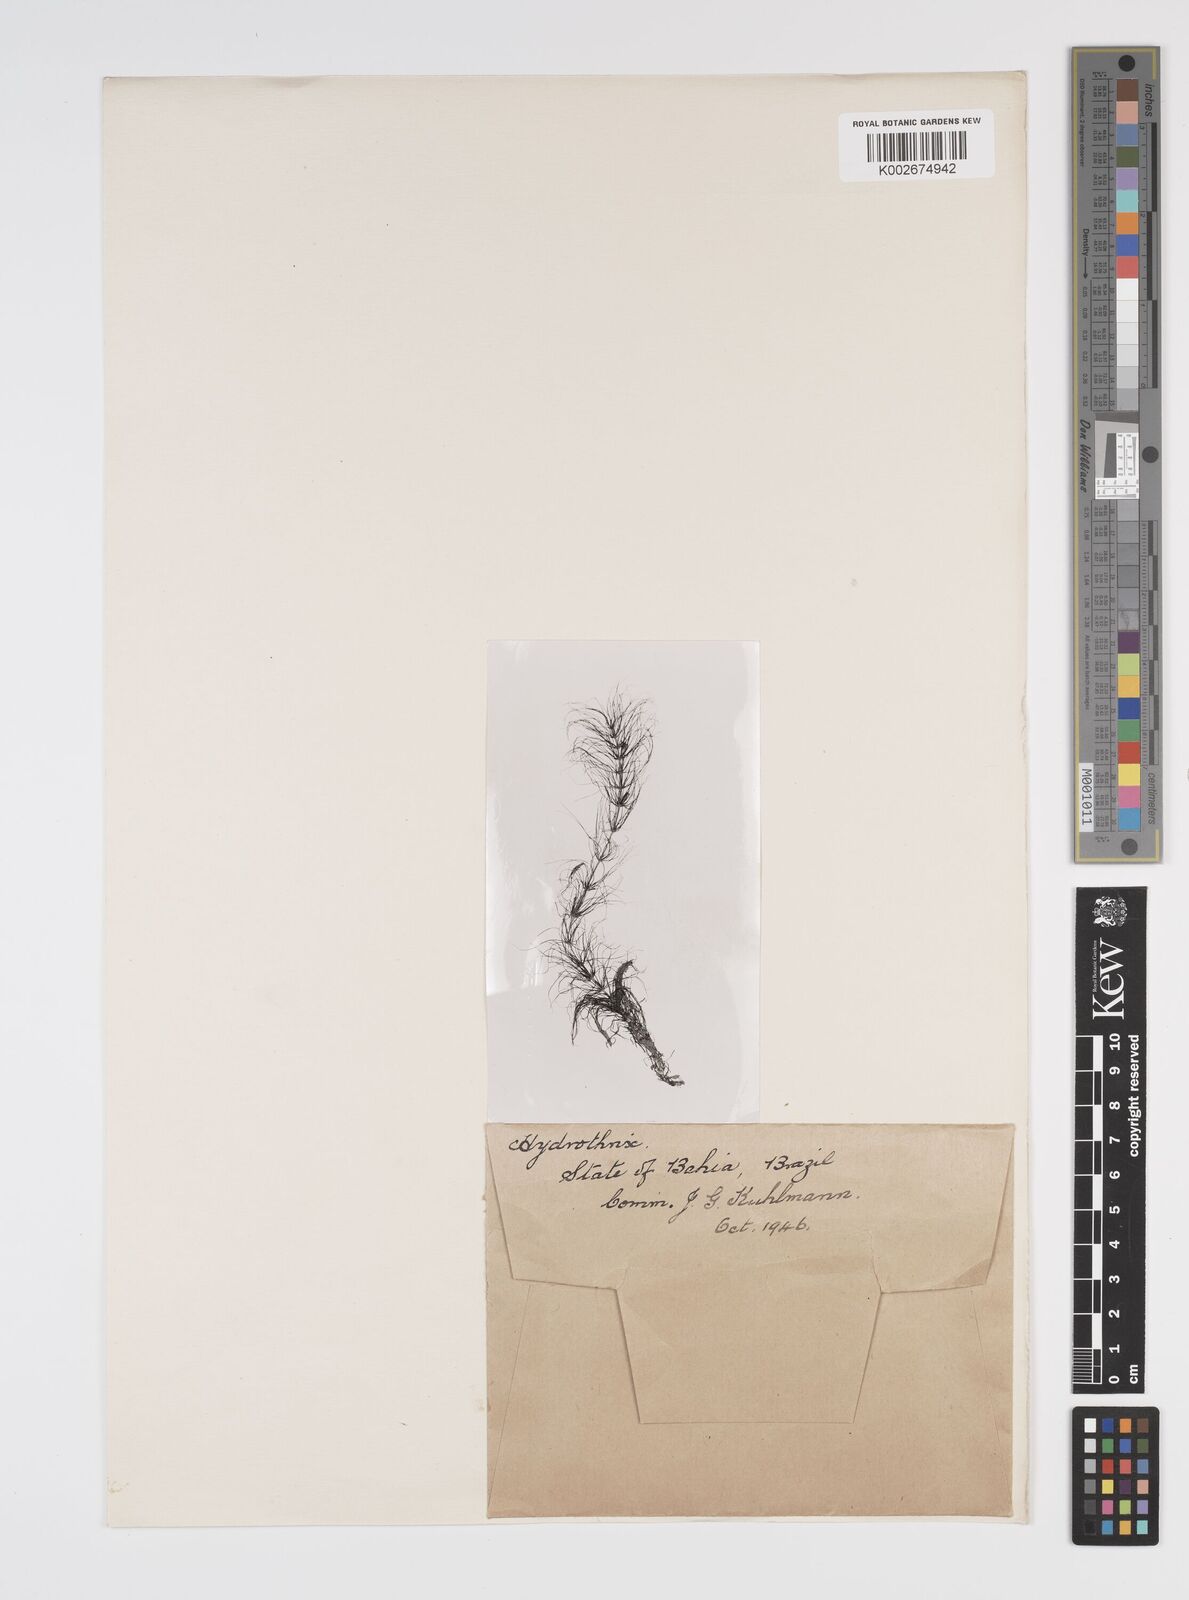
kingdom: Plantae
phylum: Tracheophyta
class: Liliopsida
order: Commelinales
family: Pontederiaceae
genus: Heteranthera
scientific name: Heteranthera gardneri
